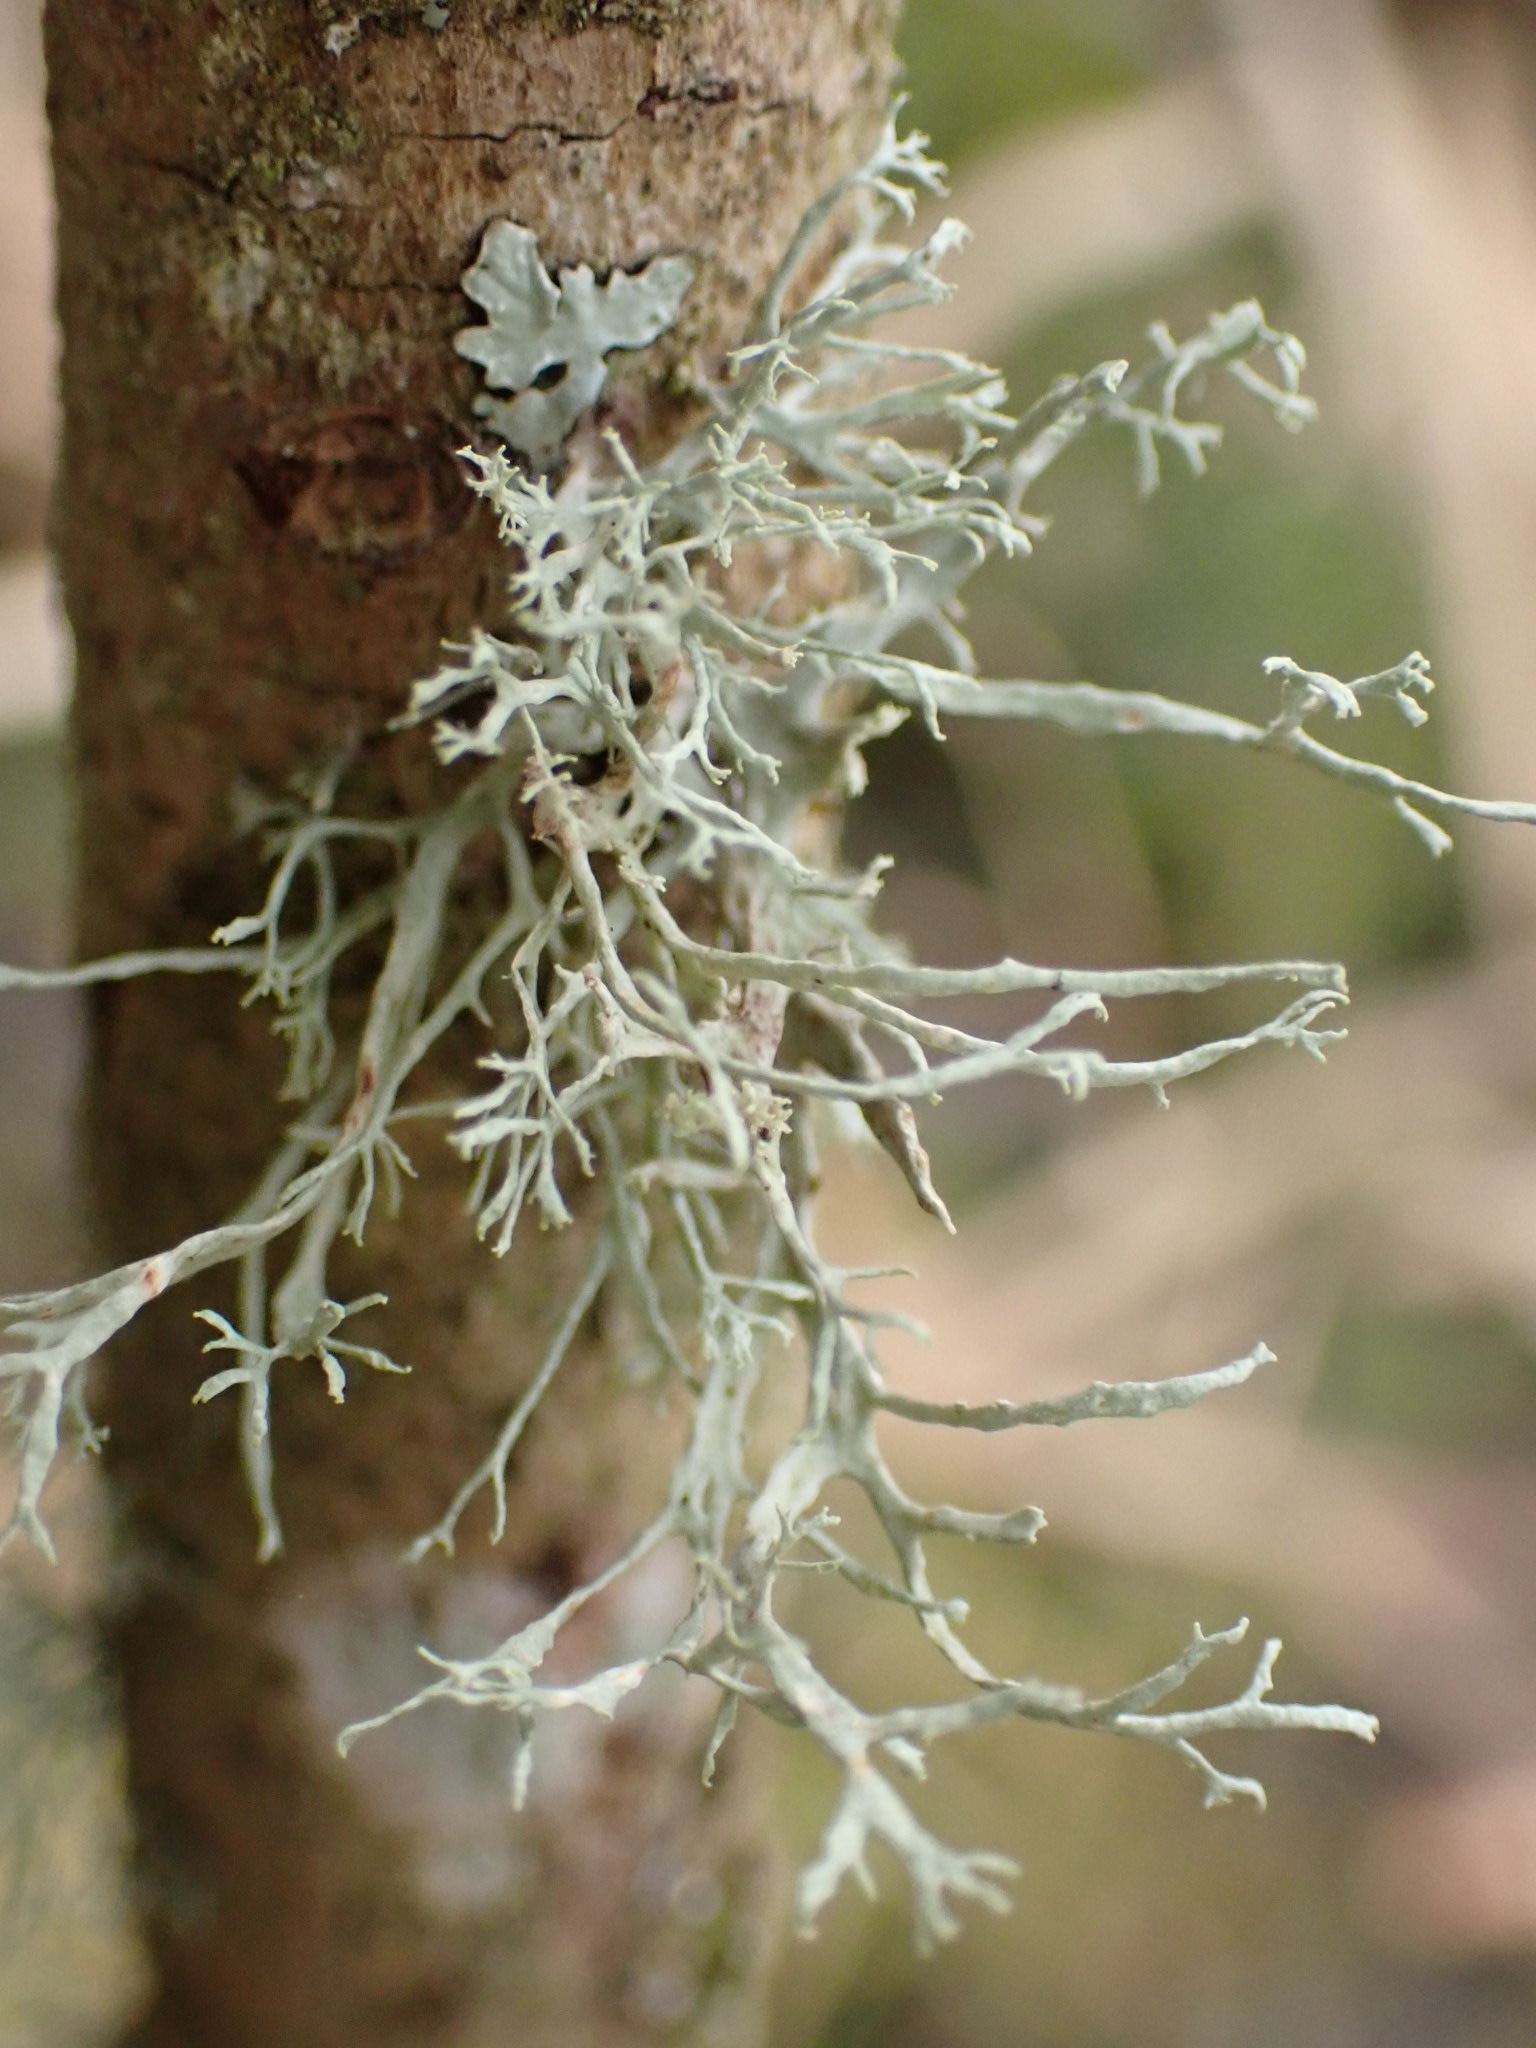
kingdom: Fungi
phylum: Ascomycota
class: Lecanoromycetes
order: Lecanorales
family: Ramalinaceae
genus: Ramalina
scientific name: Ramalina farinacea
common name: melet grenlav
